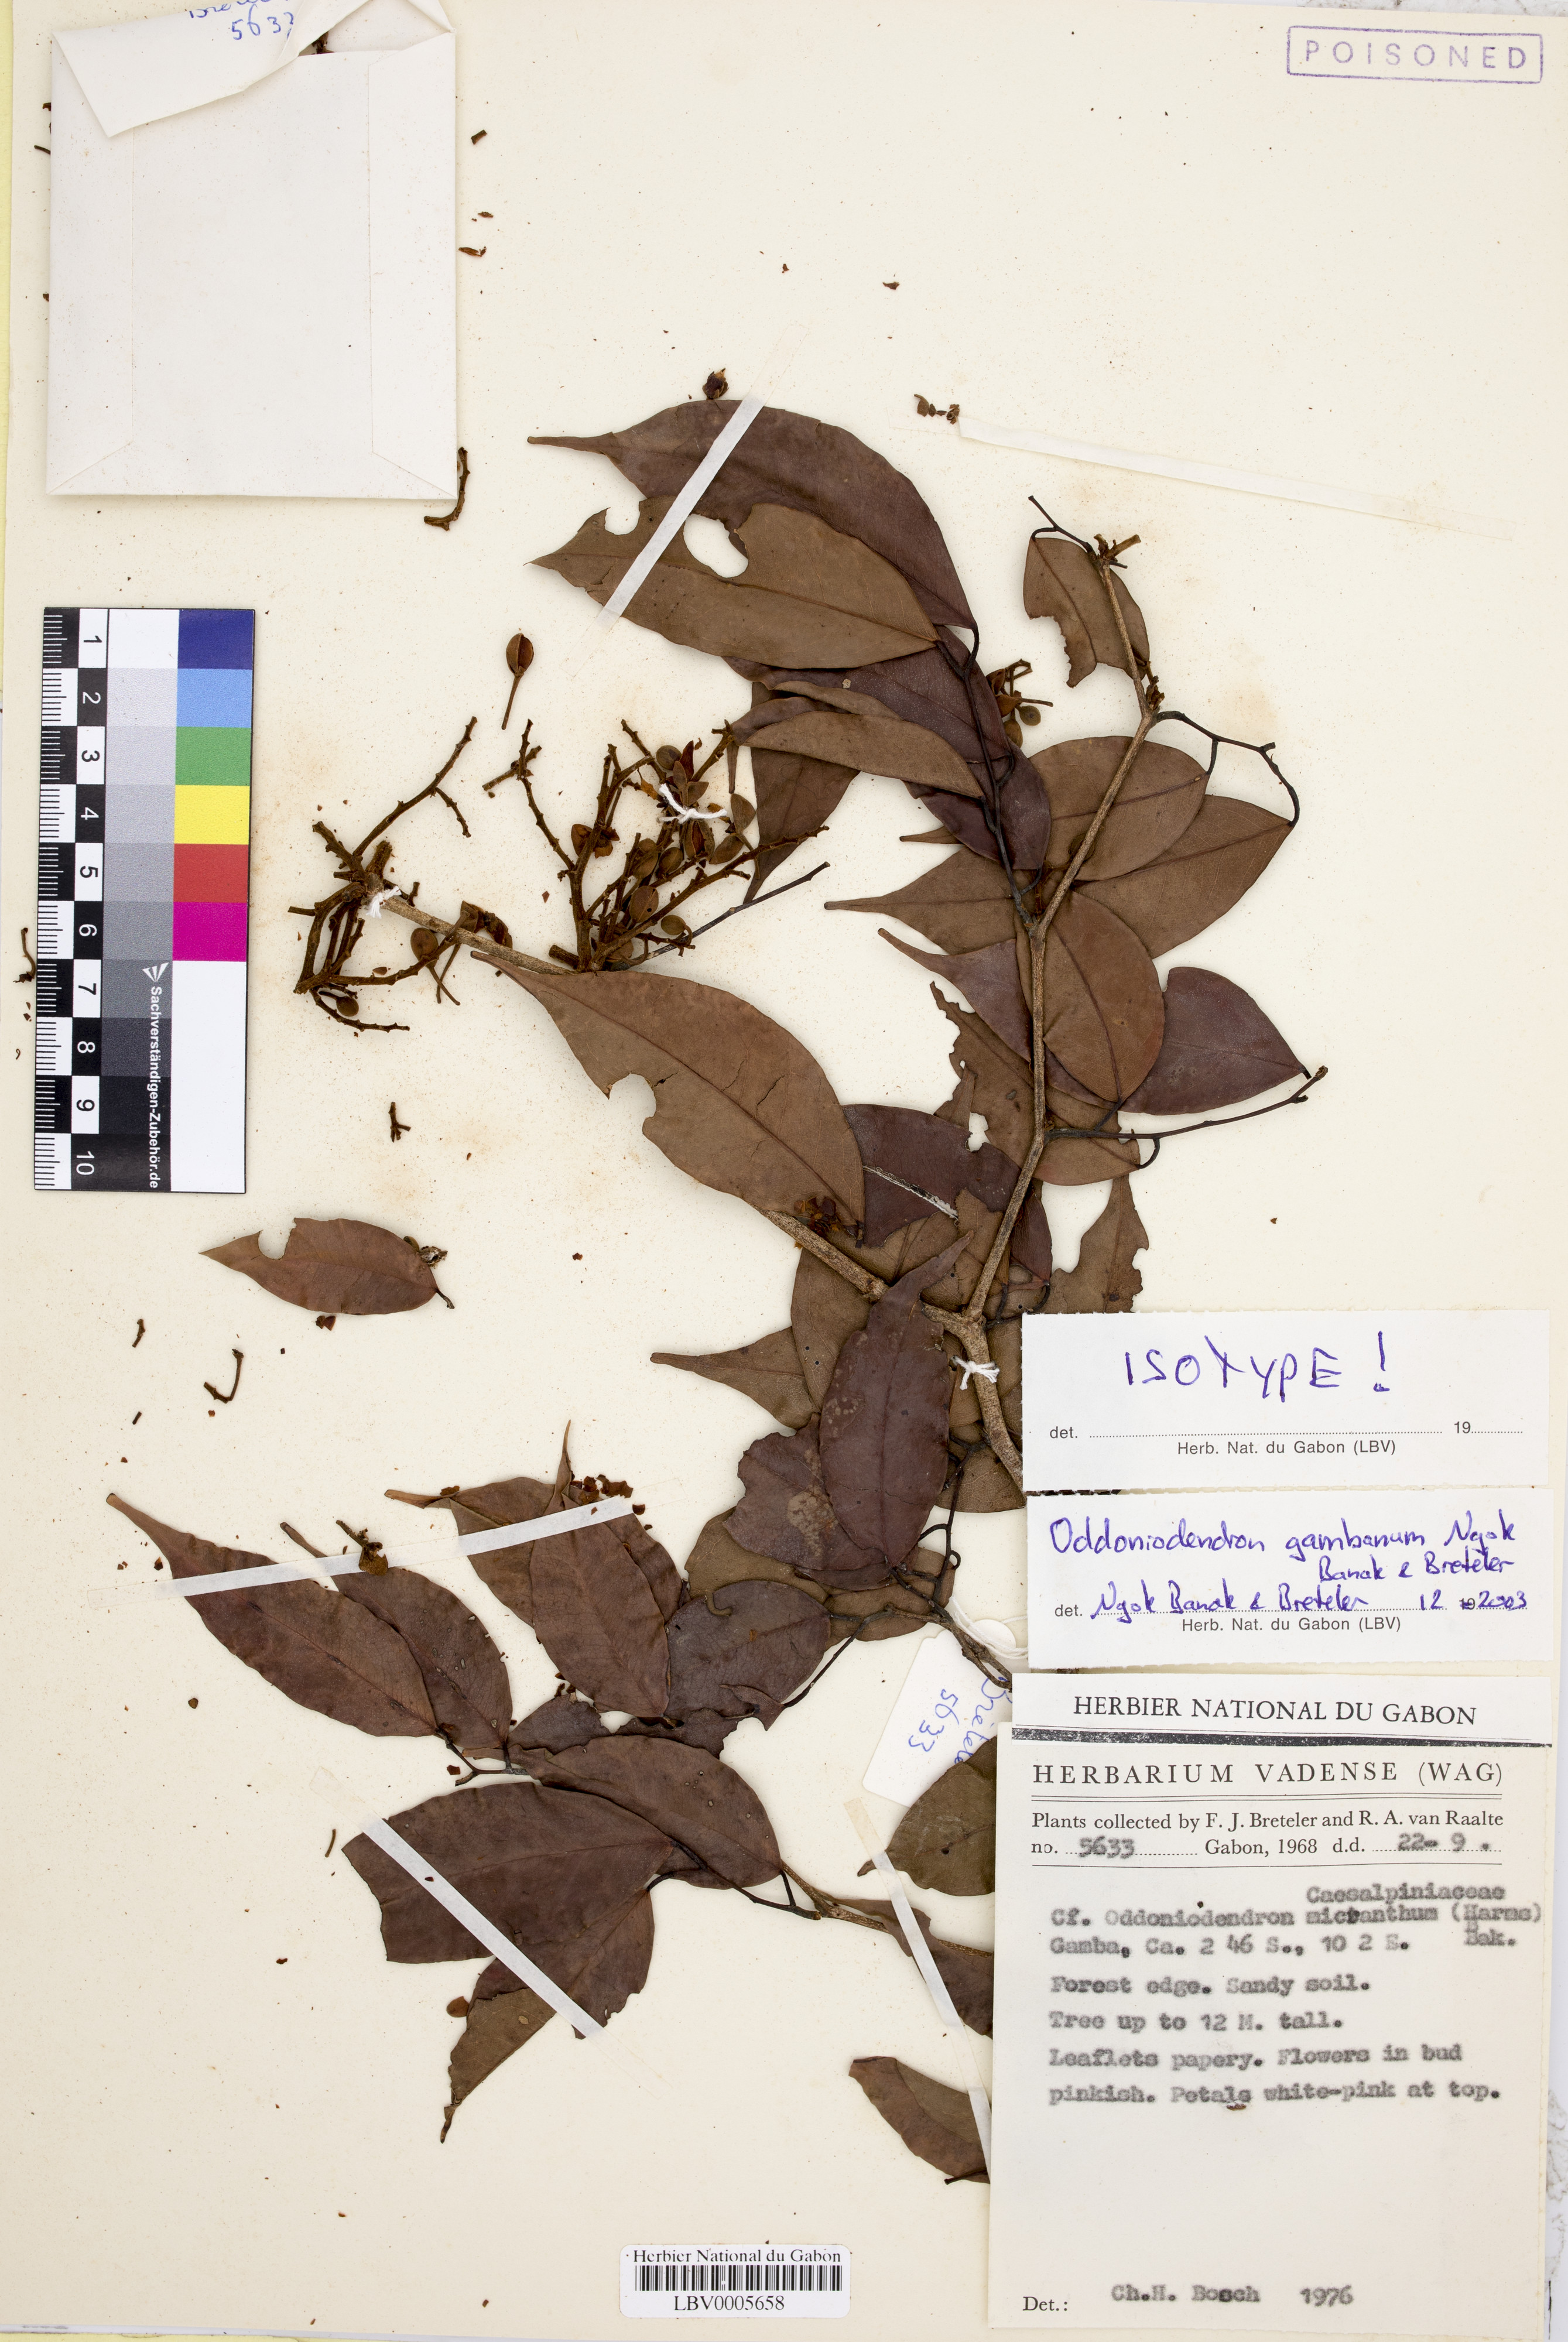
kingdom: Plantae
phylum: Tracheophyta
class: Magnoliopsida
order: Fabales
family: Fabaceae
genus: Oddoniodendron
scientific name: Oddoniodendron gambanum
